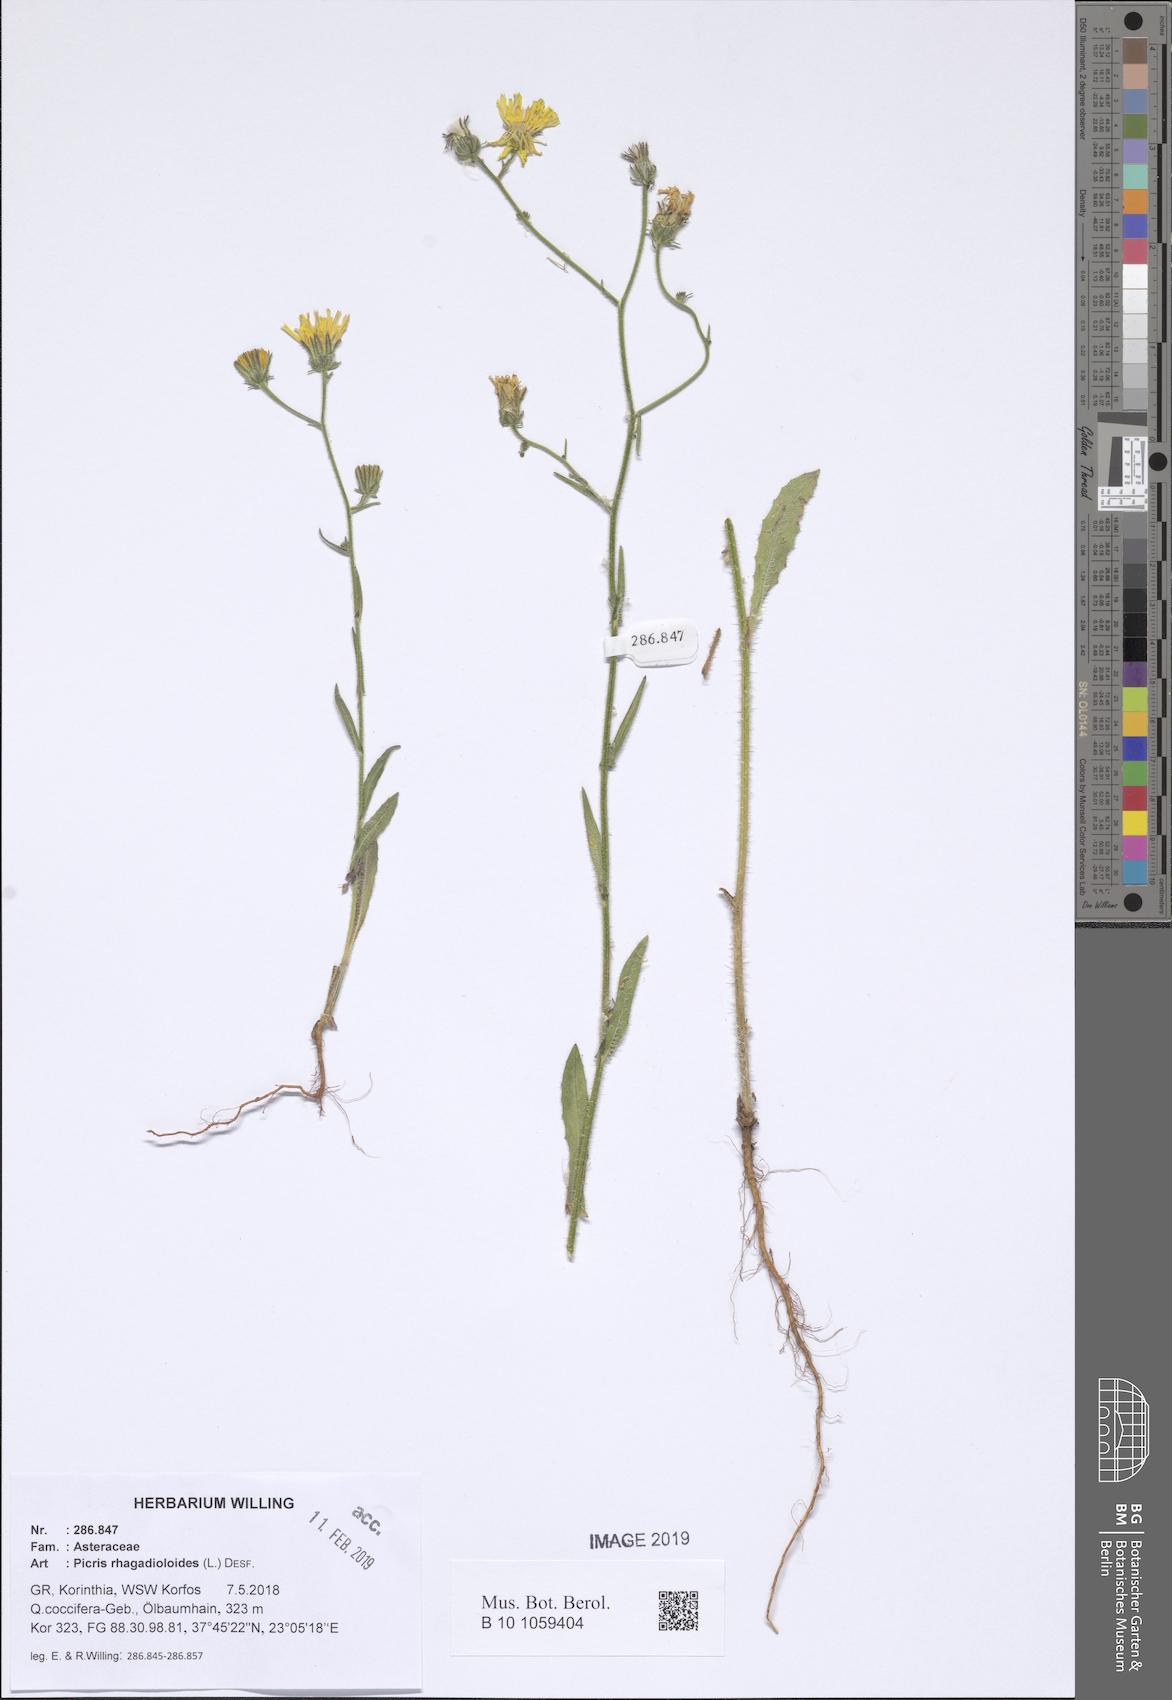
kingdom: Plantae
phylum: Tracheophyta
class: Magnoliopsida
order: Asterales
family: Asteraceae
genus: Picris
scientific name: Picris rhagadioloides
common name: Oxtongue
